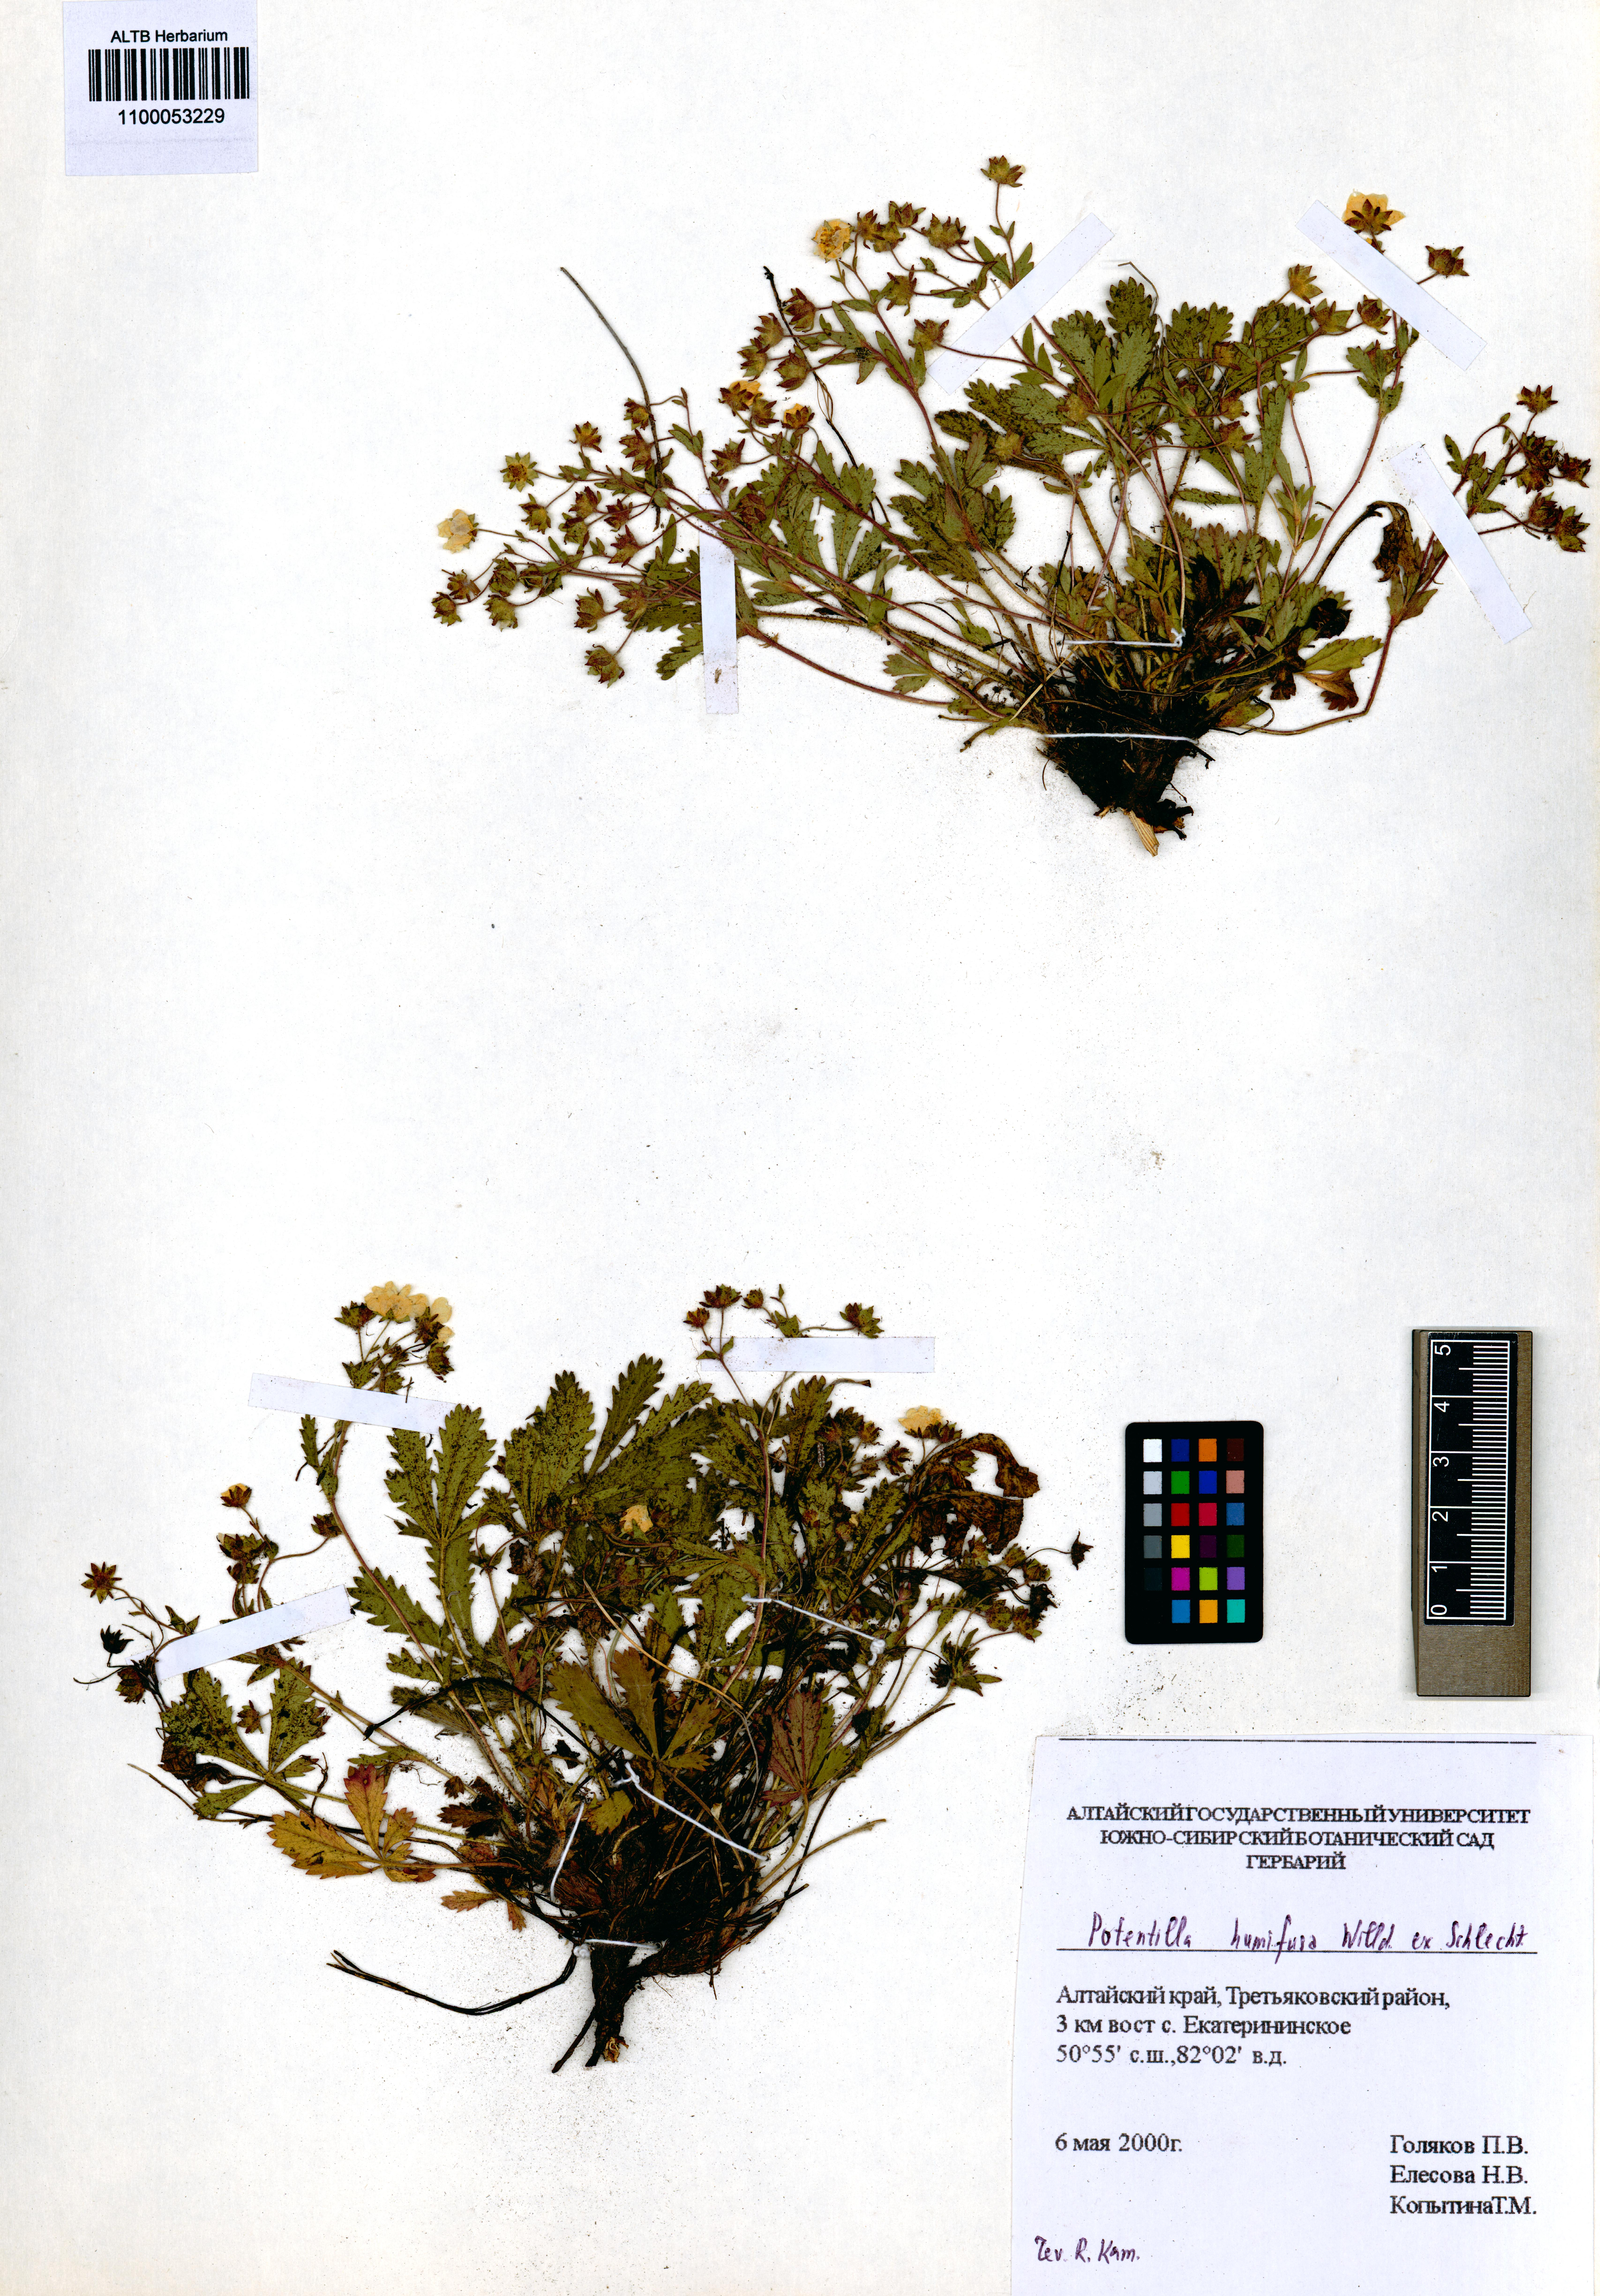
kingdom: Plantae
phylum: Tracheophyta
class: Magnoliopsida
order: Rosales
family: Rosaceae
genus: Potentilla
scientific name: Potentilla humifusa
